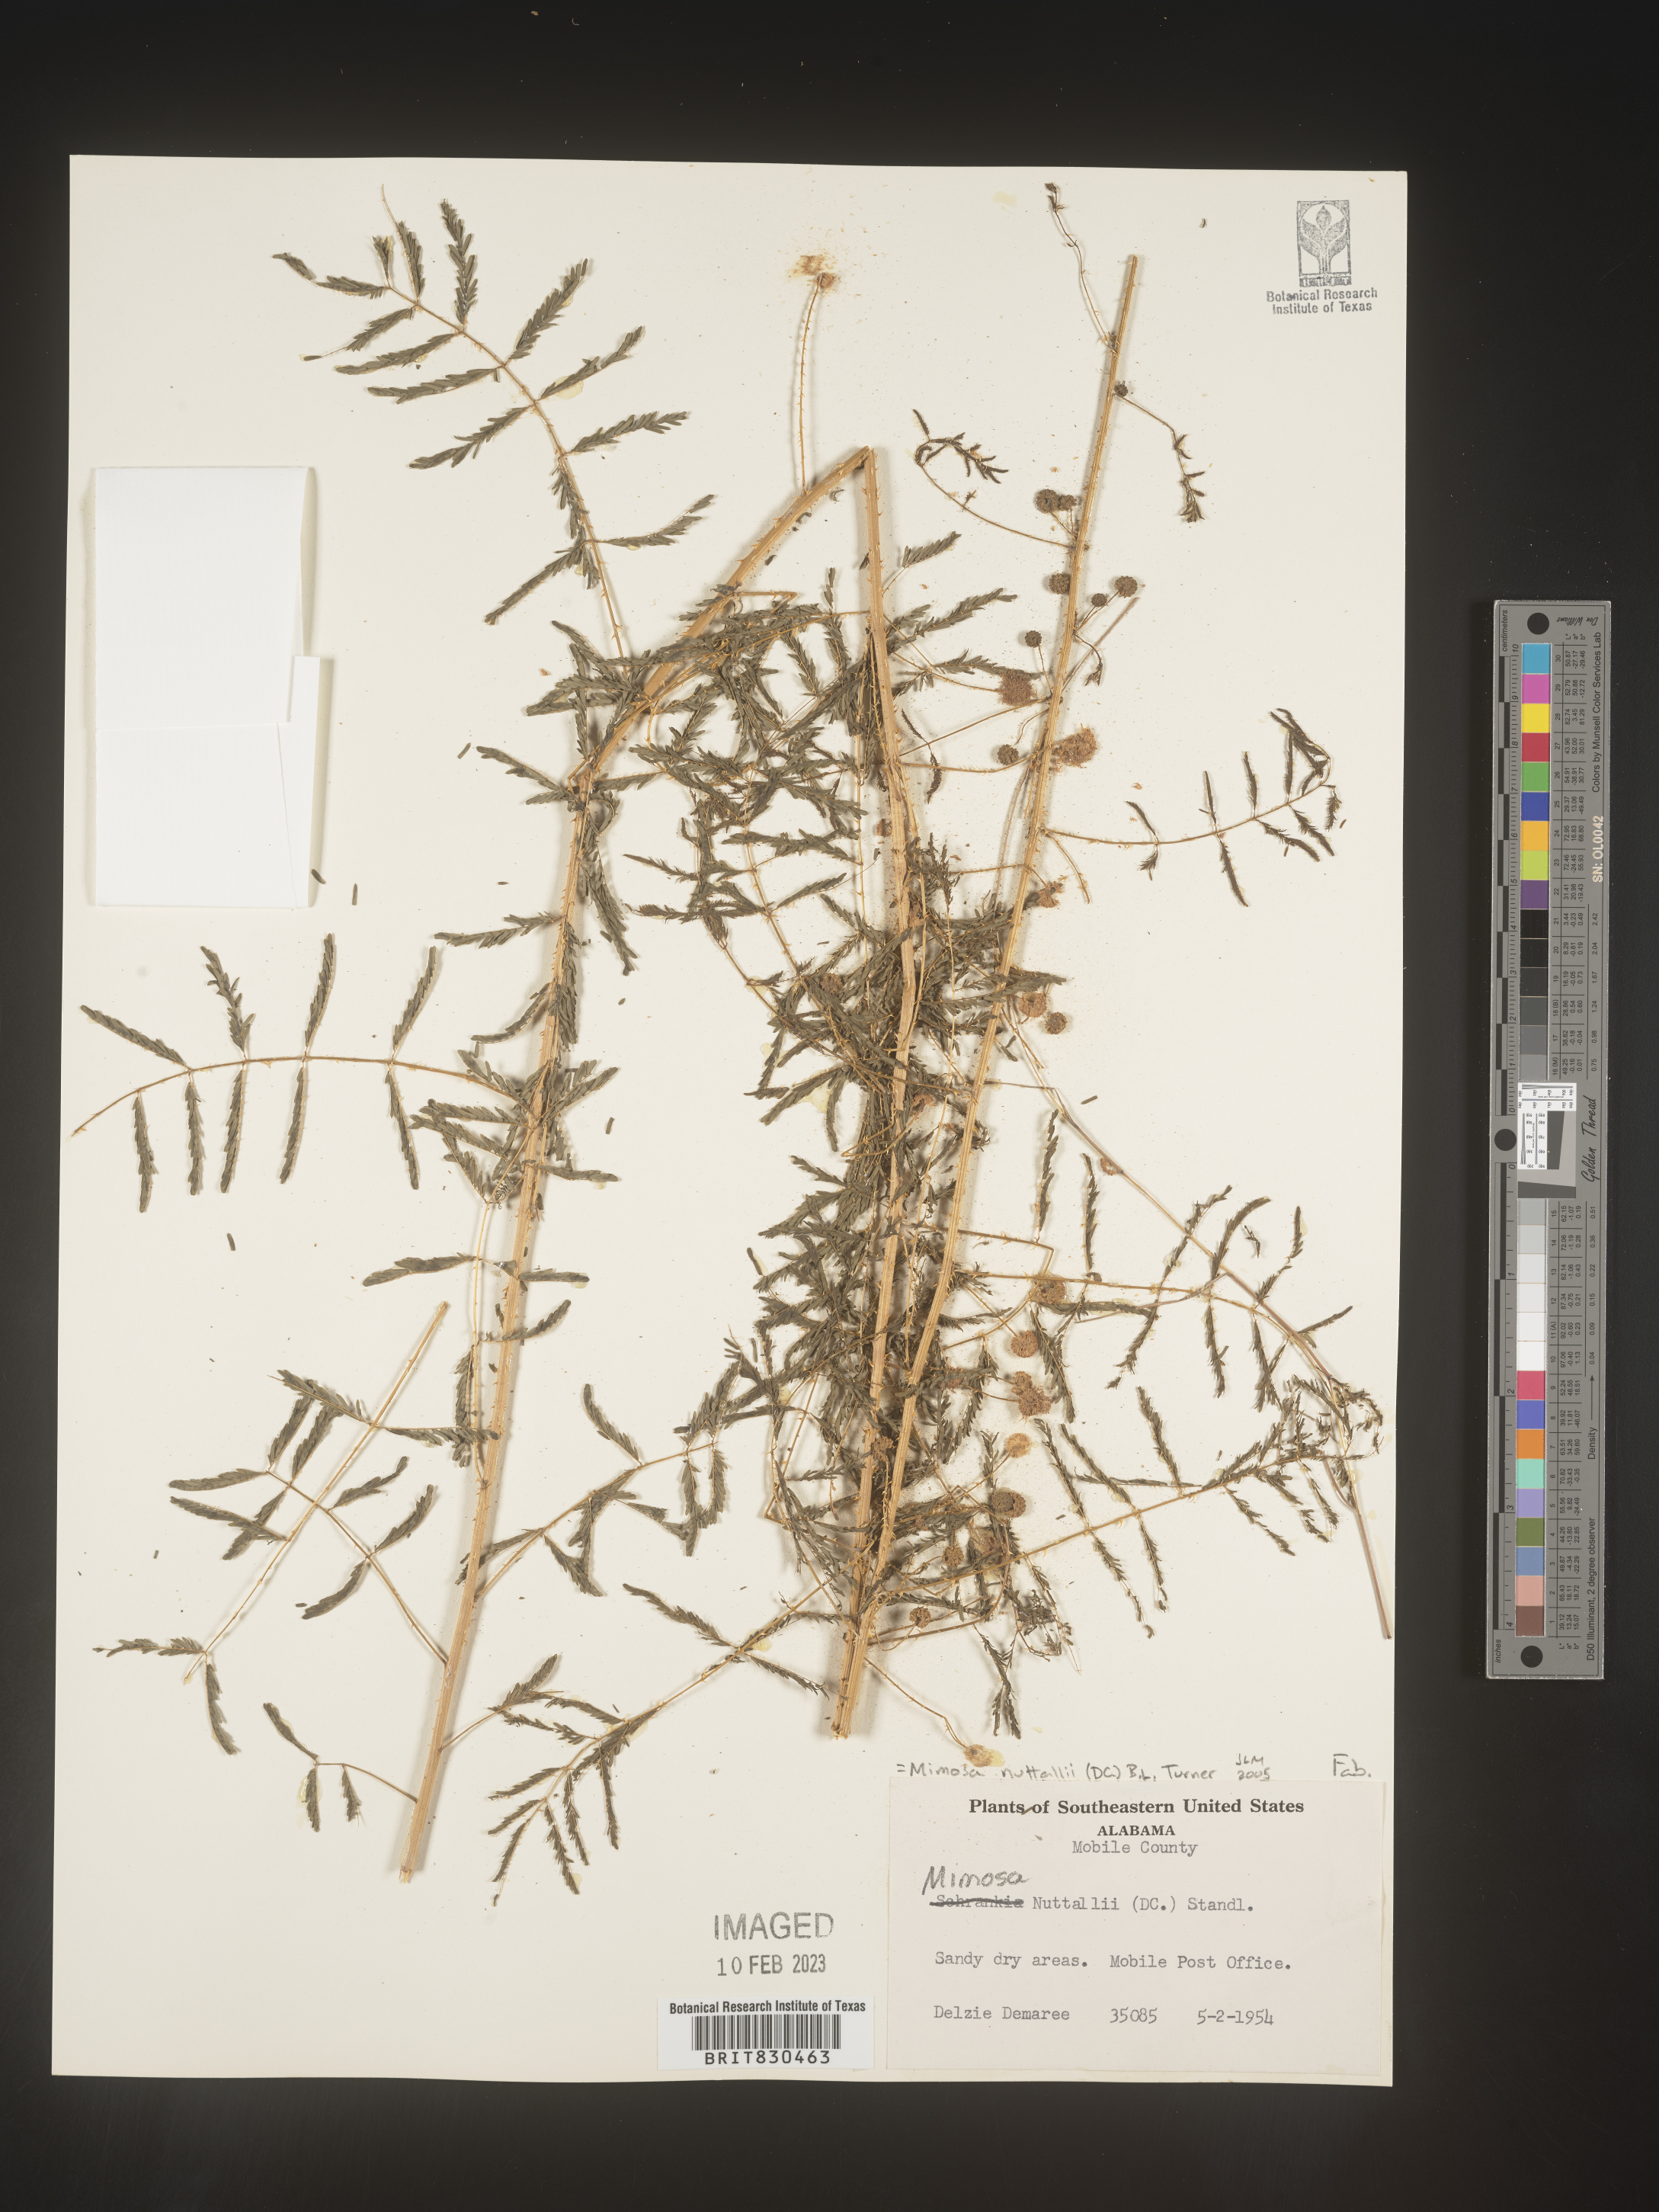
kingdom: Plantae
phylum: Tracheophyta
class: Magnoliopsida
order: Fabales
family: Fabaceae
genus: Mimosa
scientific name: Mimosa quadrivalvis
